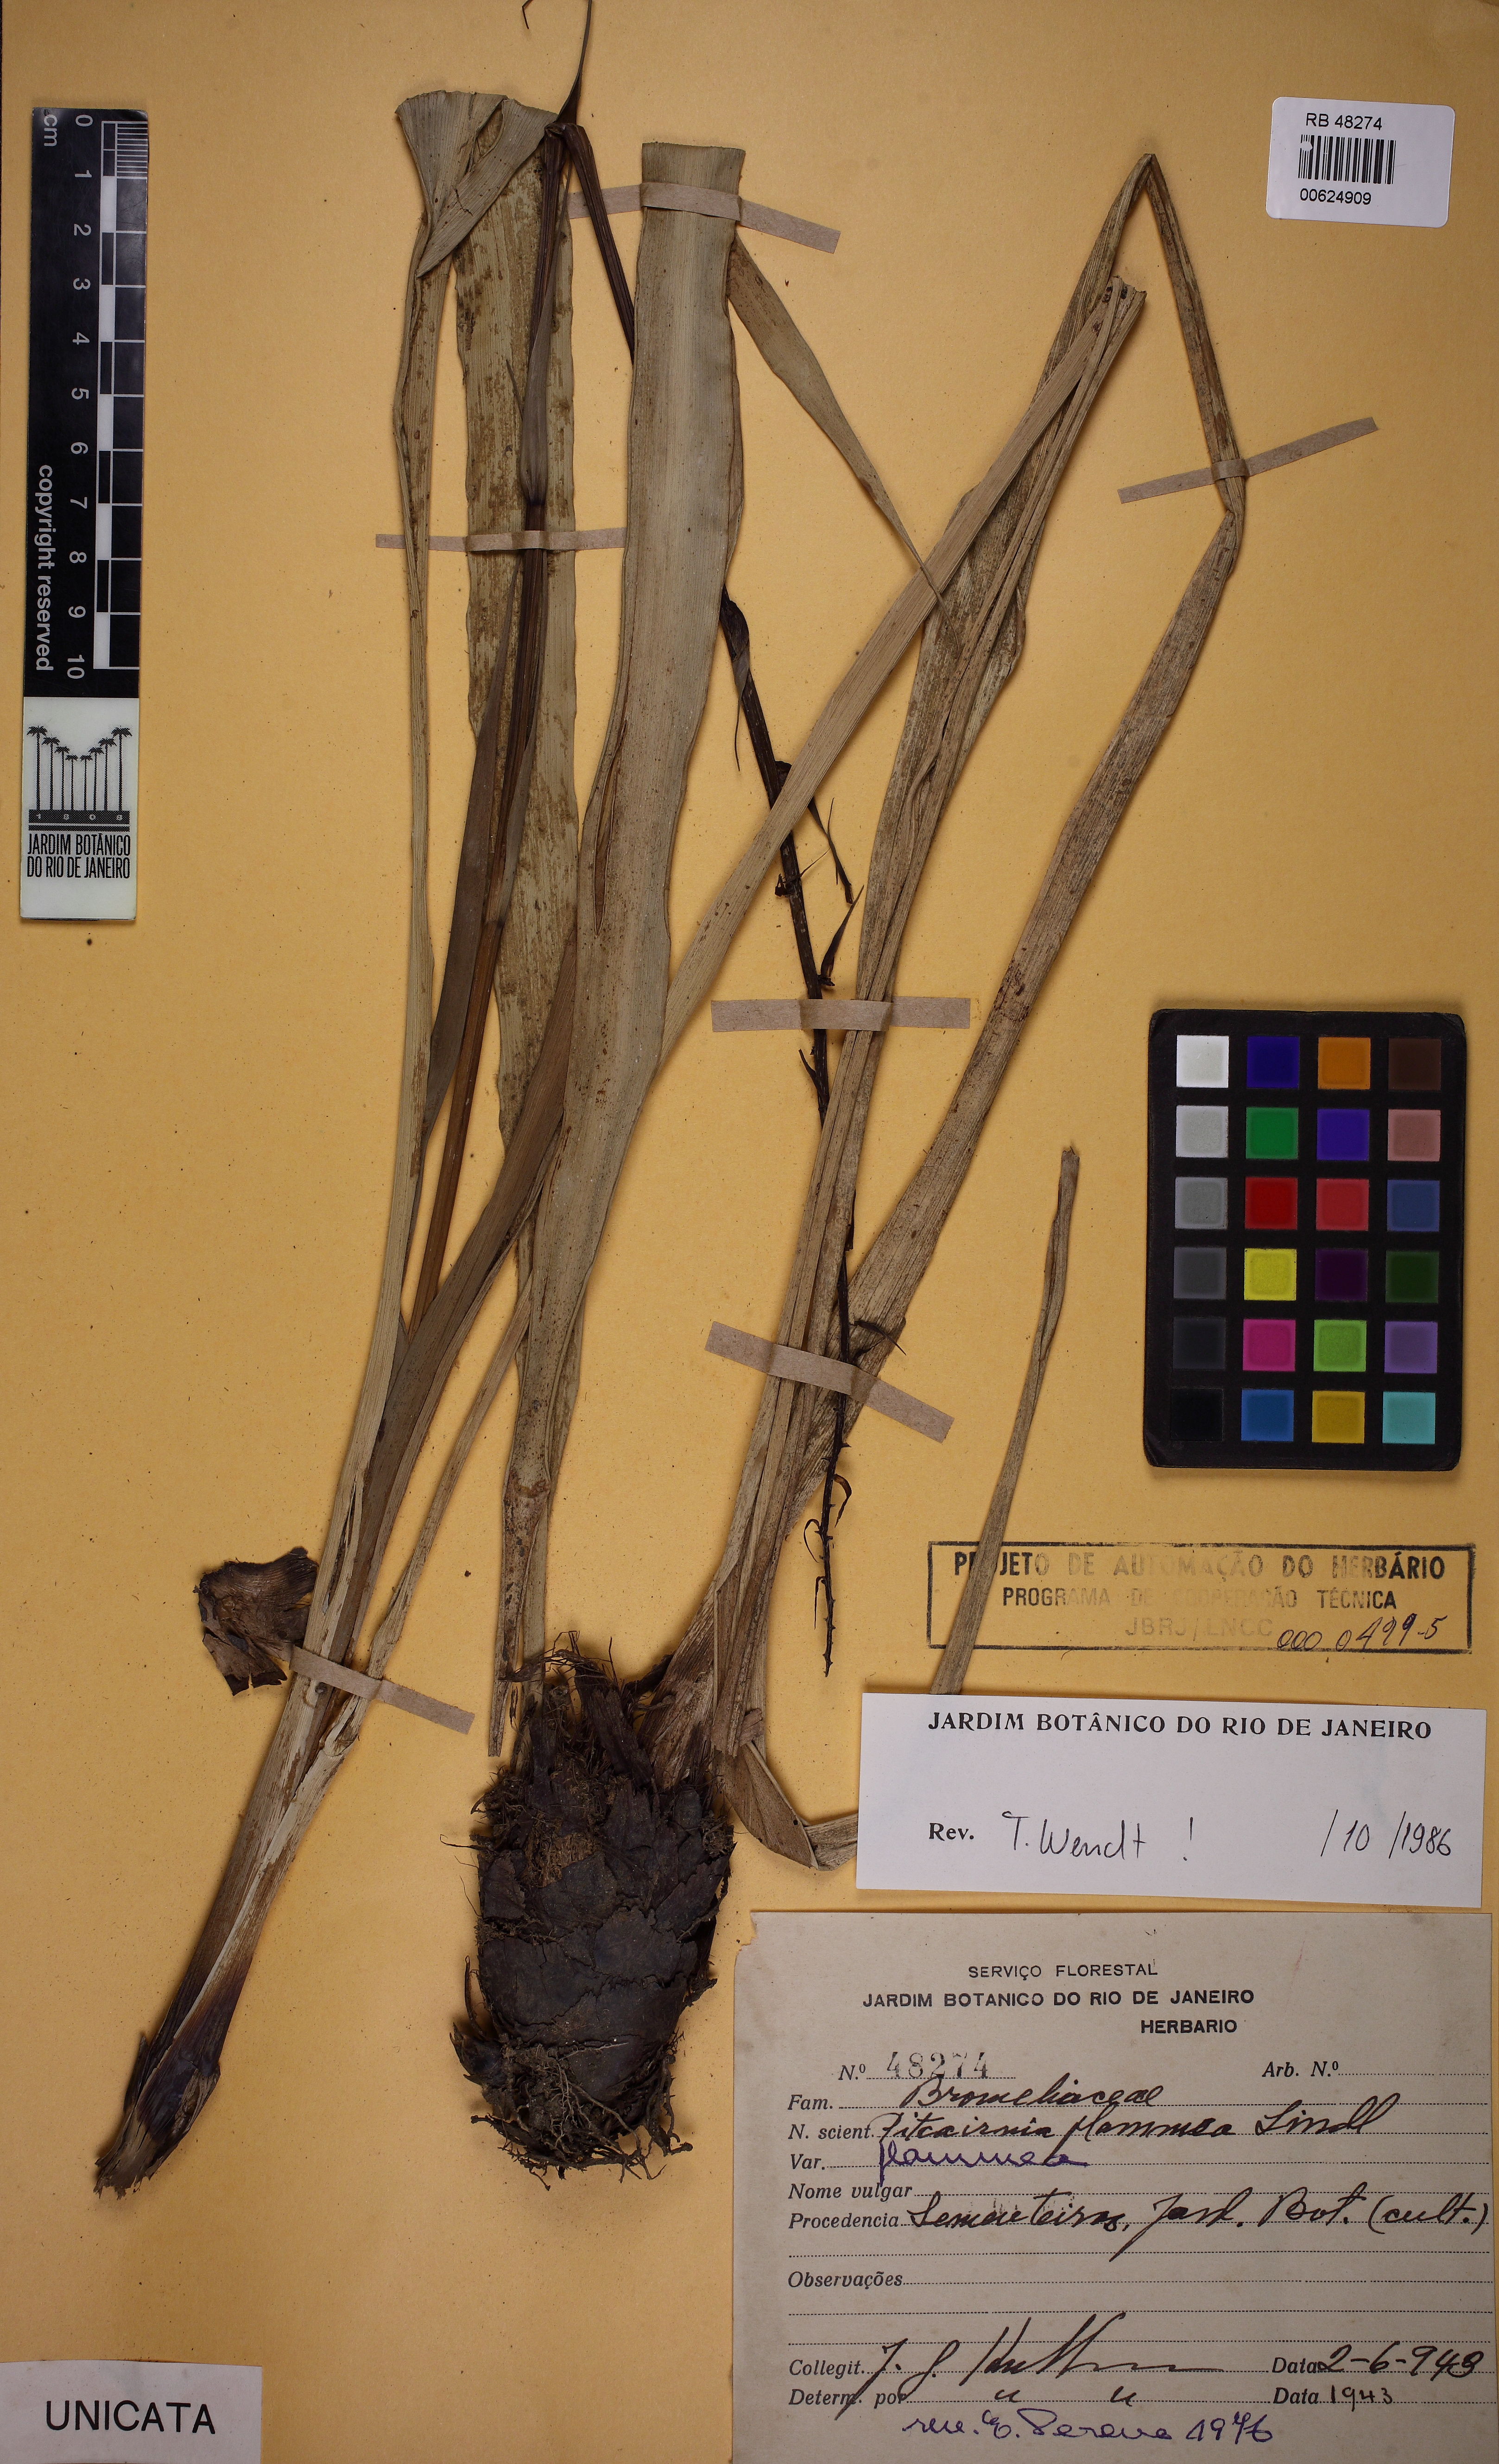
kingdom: Plantae
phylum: Tracheophyta
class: Liliopsida
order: Poales
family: Bromeliaceae
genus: Pitcairnia
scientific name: Pitcairnia flammea
